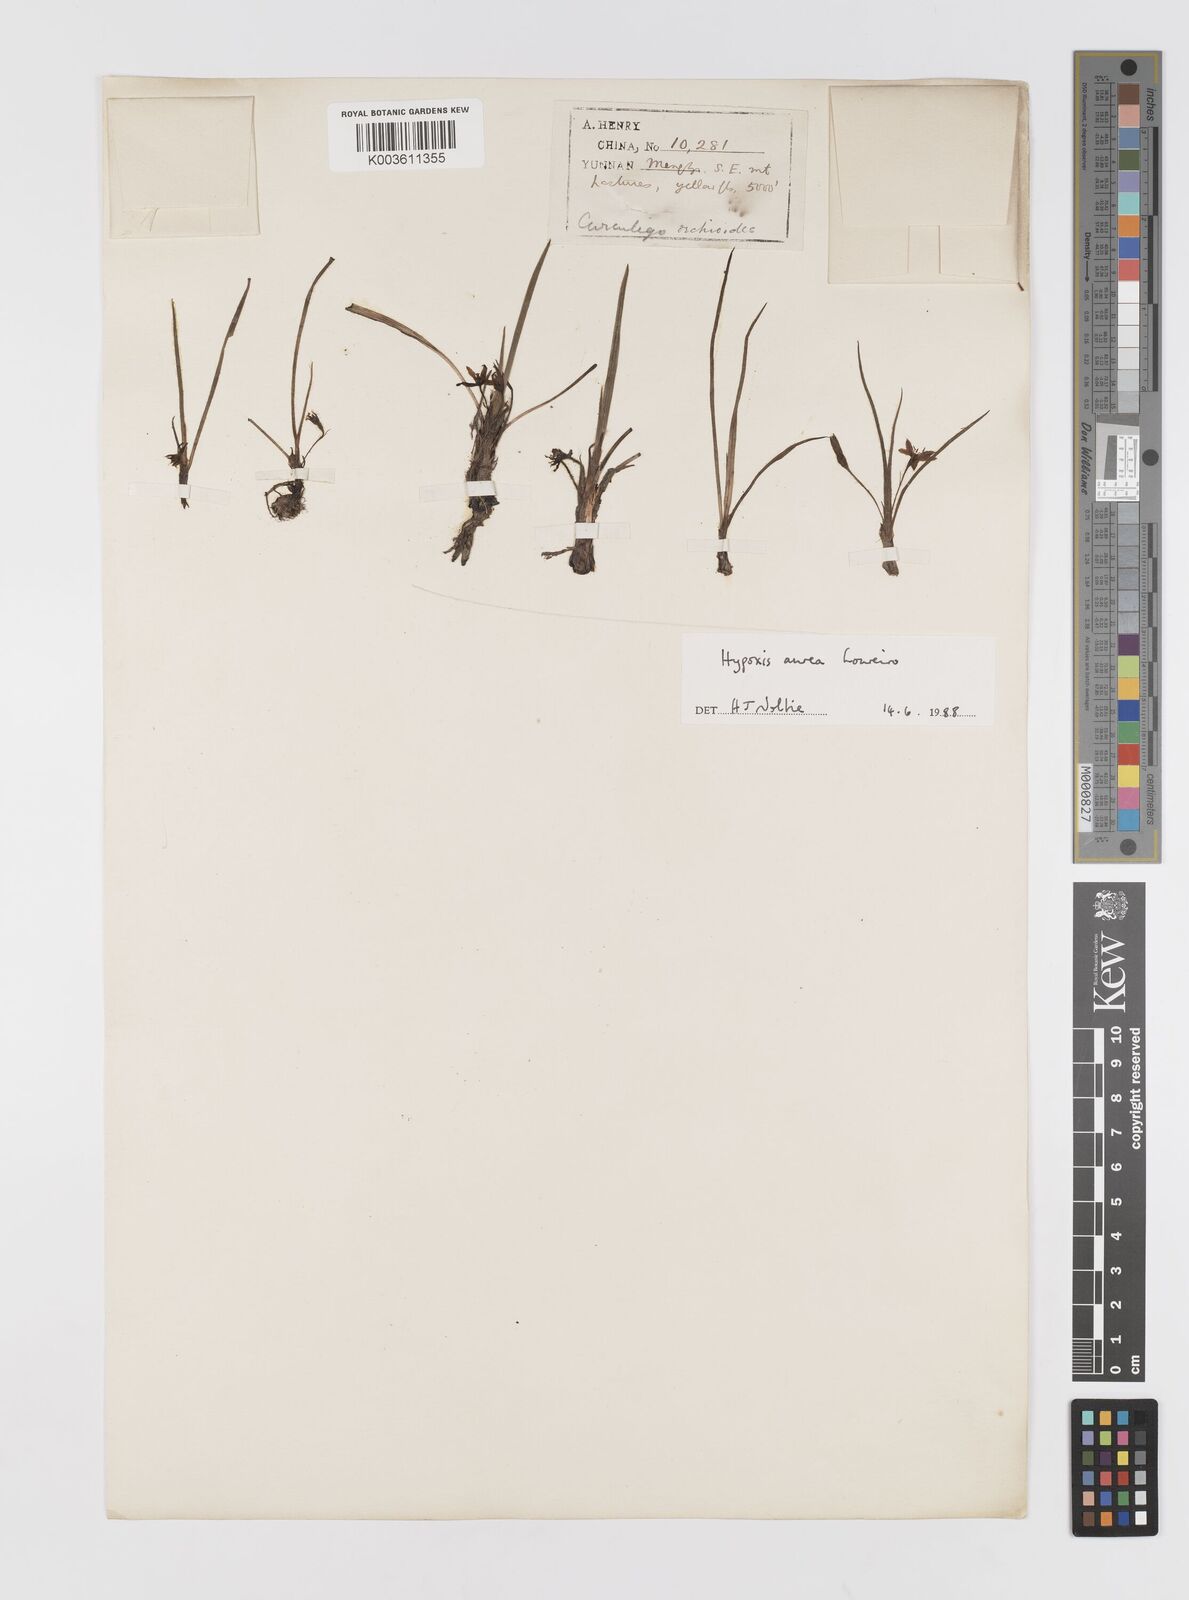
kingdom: Plantae
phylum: Tracheophyta
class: Liliopsida
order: Asparagales
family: Hypoxidaceae
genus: Hypoxis
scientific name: Hypoxis aurea
